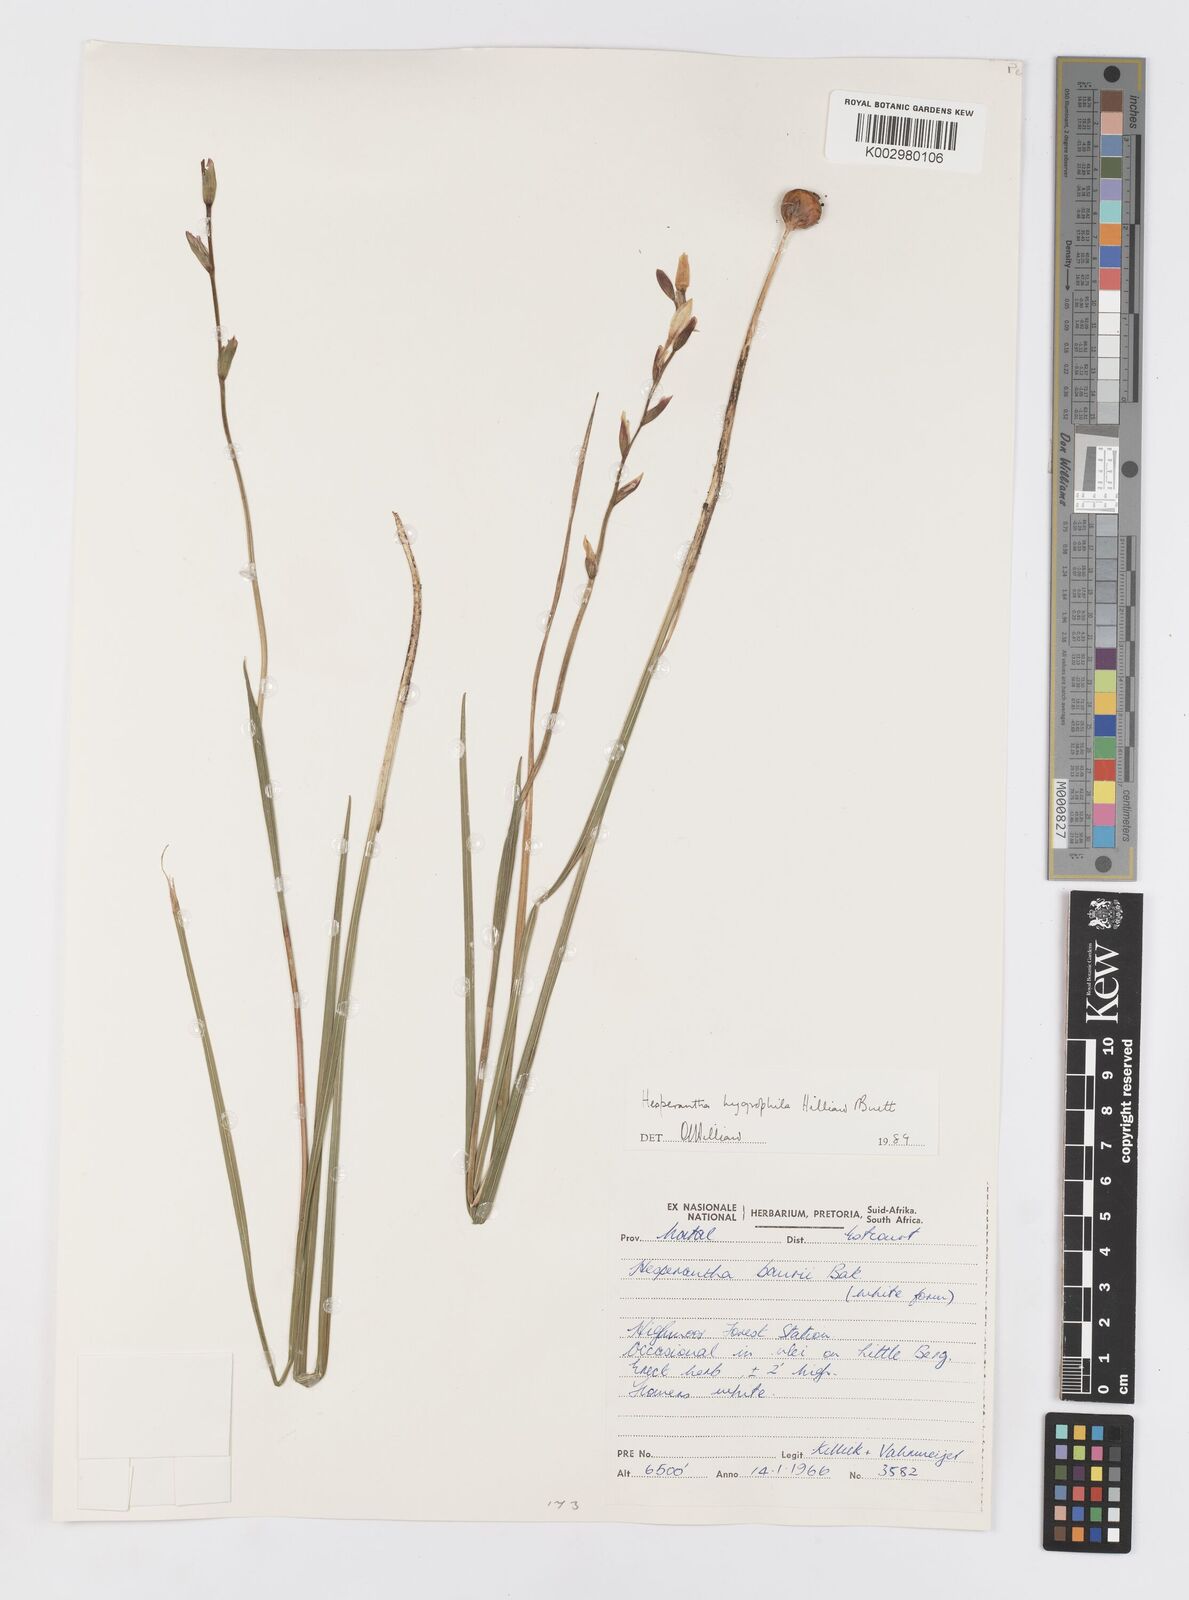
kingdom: Plantae
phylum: Tracheophyta
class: Liliopsida
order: Asparagales
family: Iridaceae
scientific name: Iridaceae
